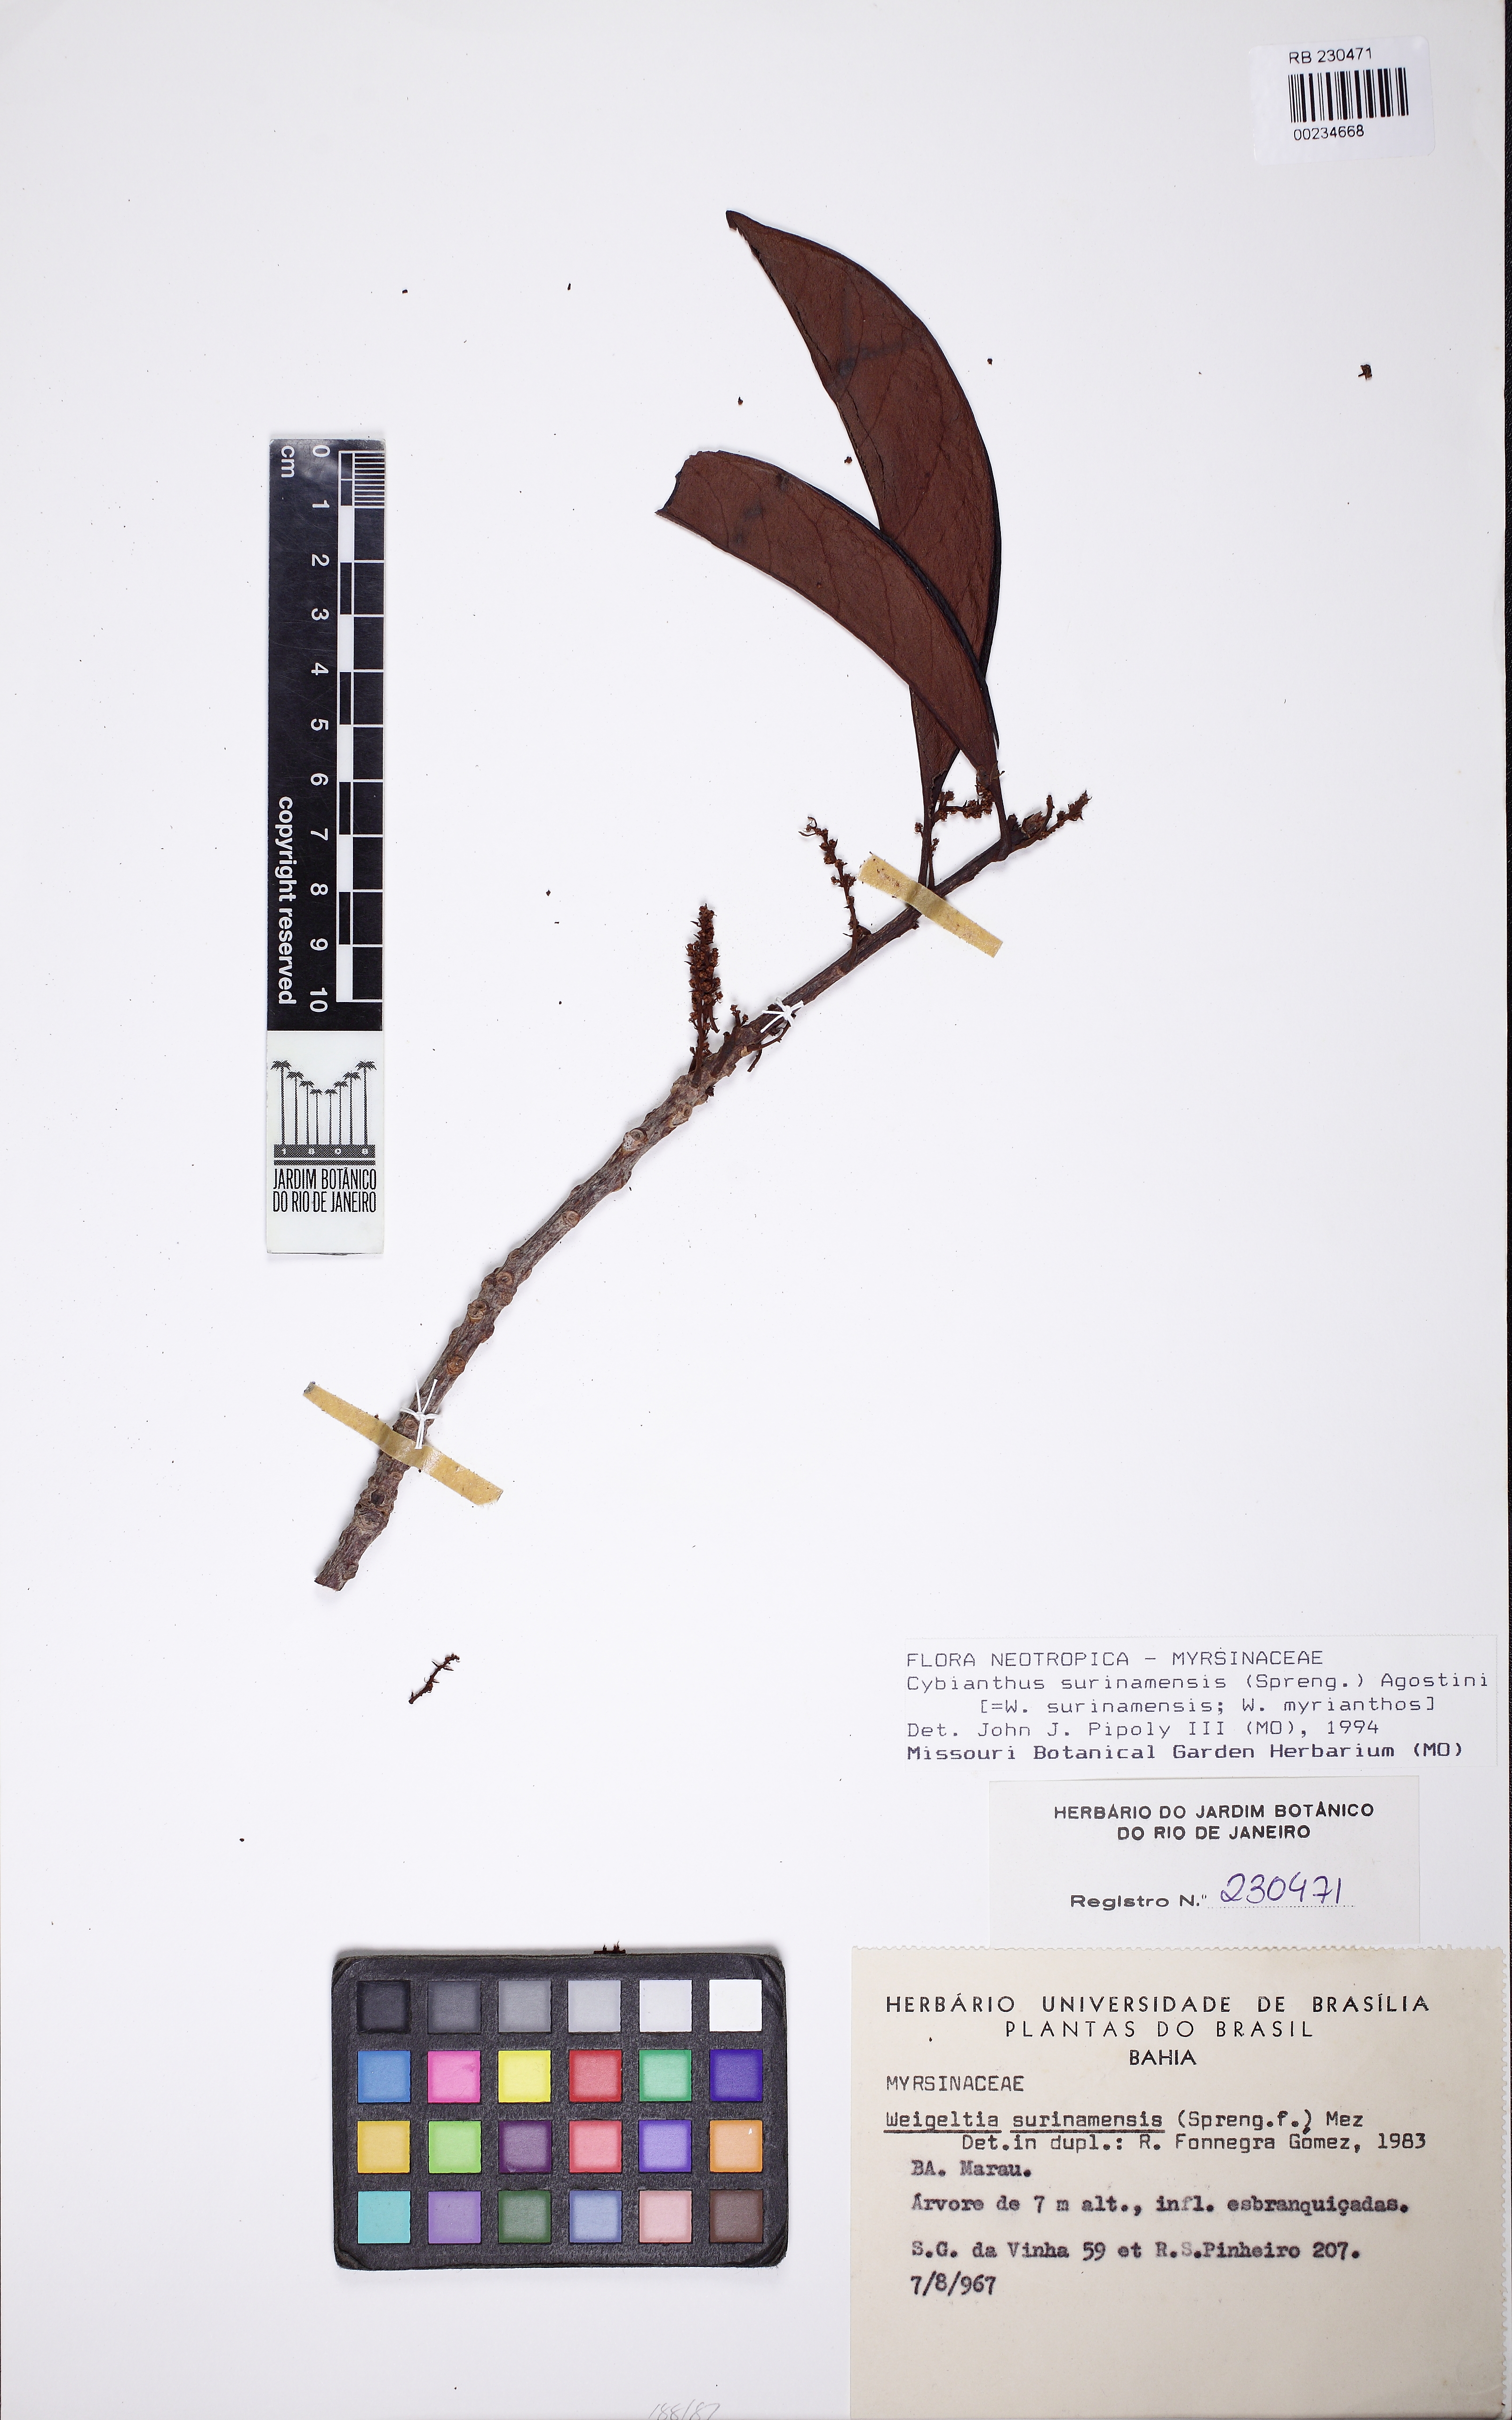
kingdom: Plantae
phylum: Tracheophyta
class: Magnoliopsida
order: Ericales
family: Primulaceae
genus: Cybianthus
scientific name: Cybianthus surinamensis
